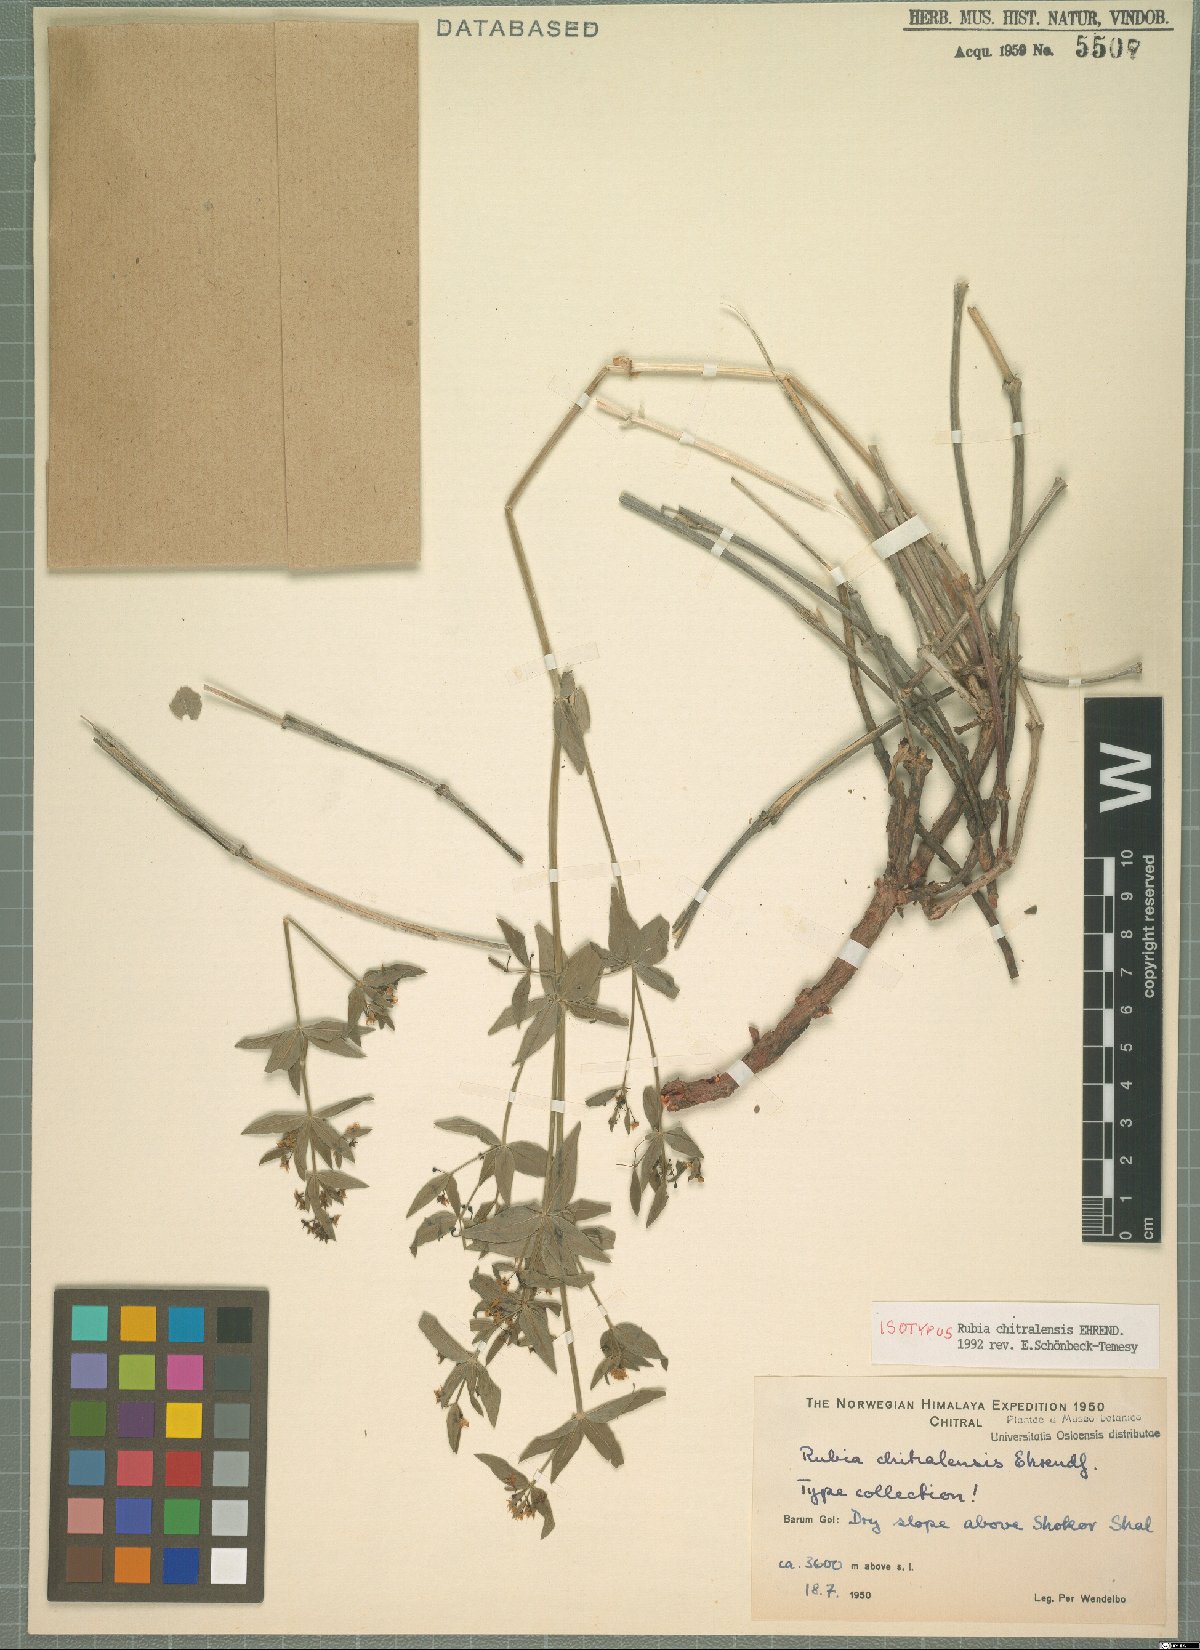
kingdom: Plantae
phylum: Tracheophyta
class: Magnoliopsida
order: Gentianales
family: Rubiaceae
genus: Rubia
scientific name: Rubia chitralensis
